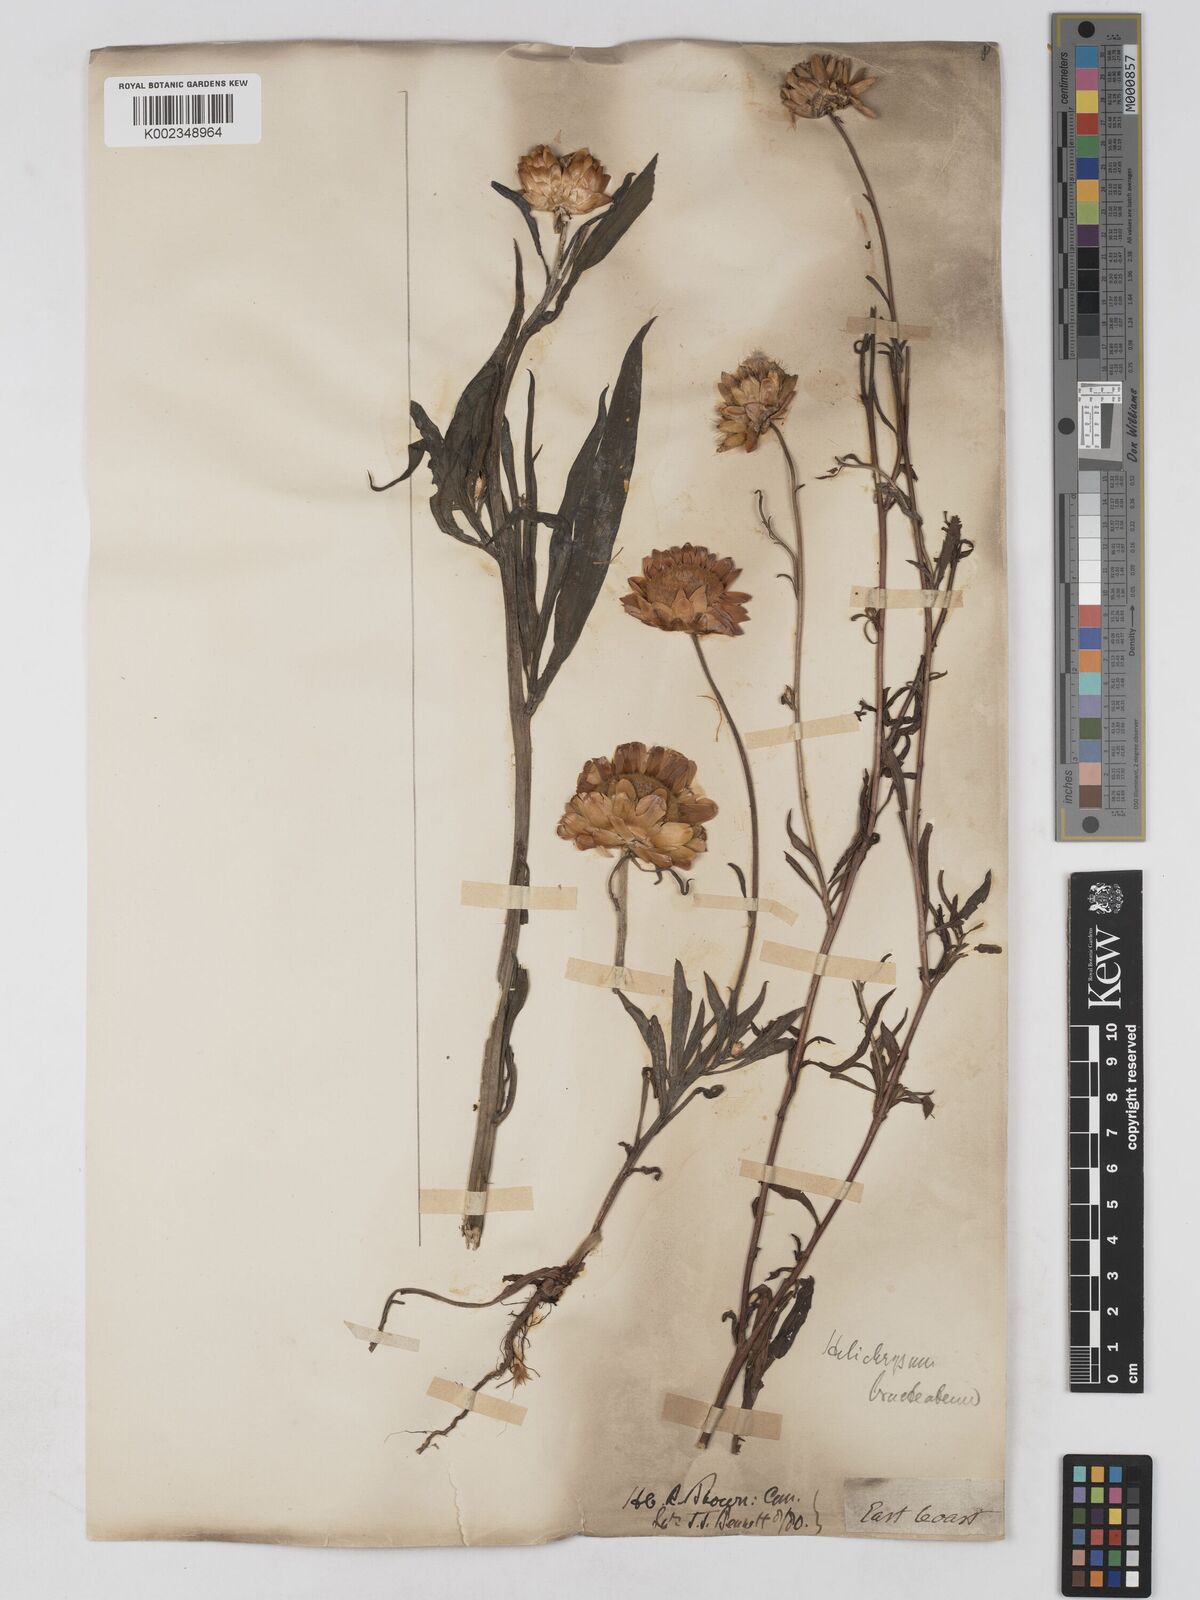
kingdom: Plantae
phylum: Tracheophyta
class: Magnoliopsida
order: Asterales
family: Asteraceae
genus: Xerochrysum
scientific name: Xerochrysum bracteatum
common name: Bracted strawflower
